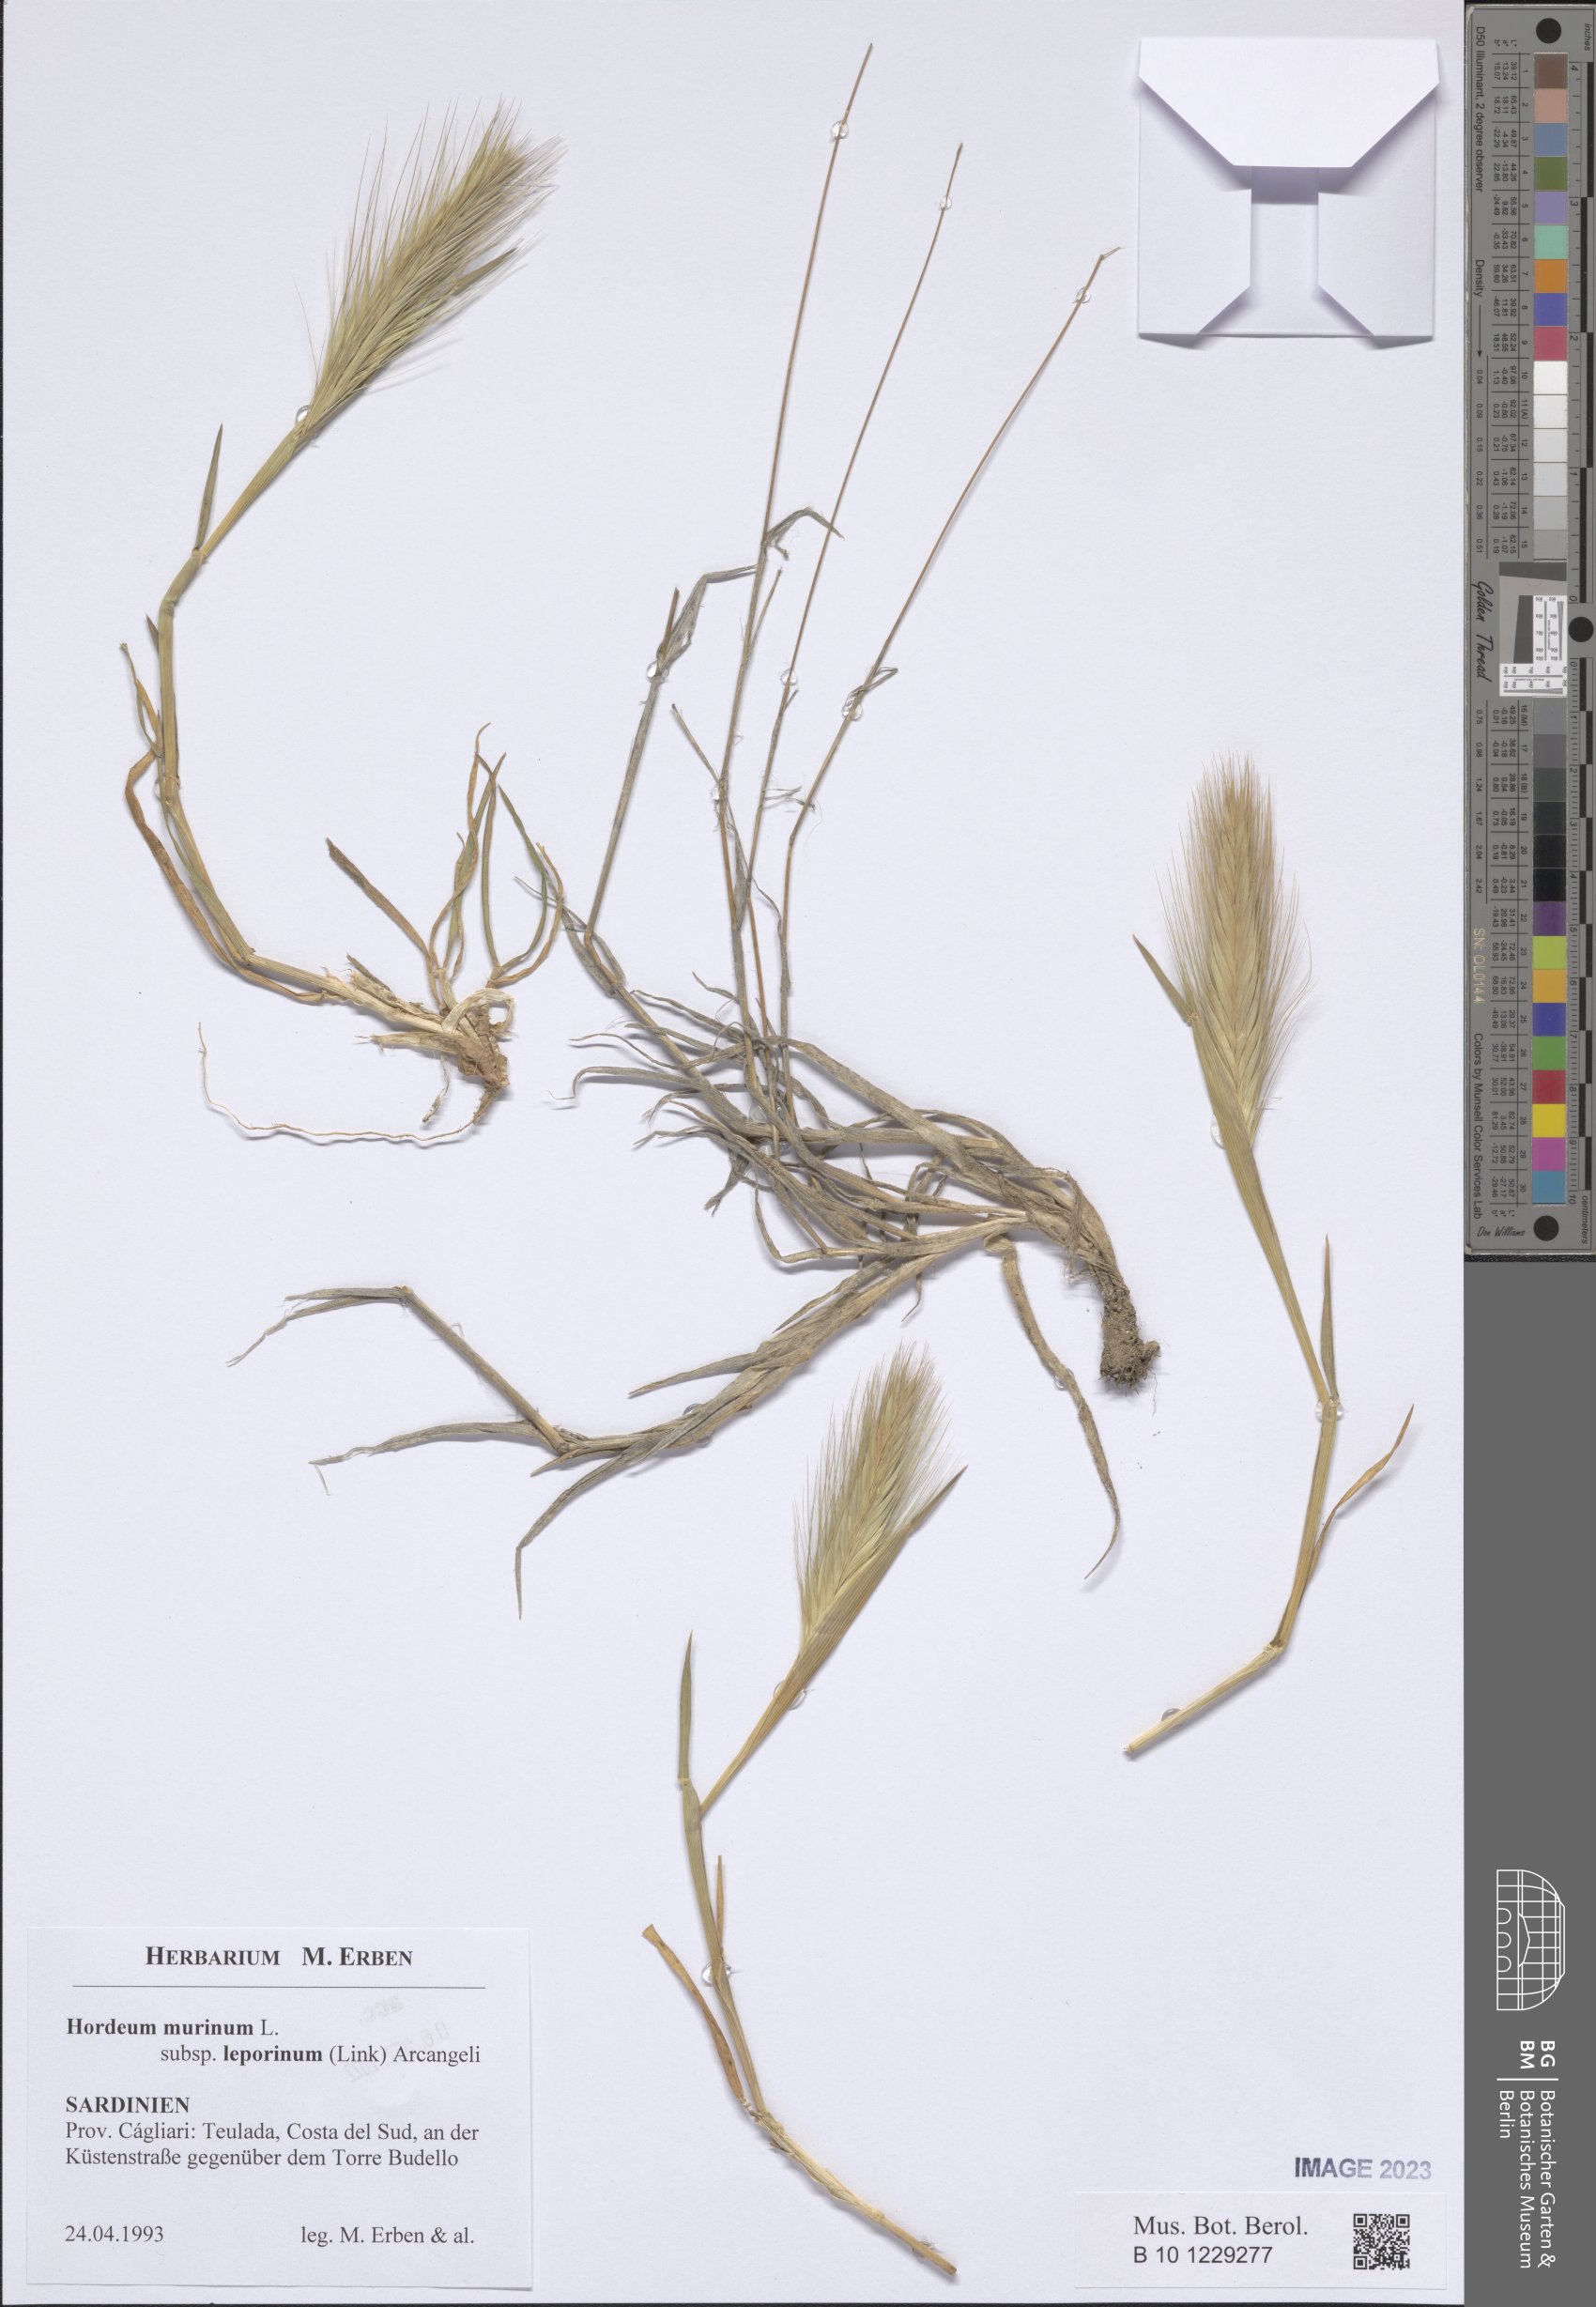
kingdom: Plantae
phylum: Tracheophyta
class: Liliopsida
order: Poales
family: Poaceae
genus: Hordeum
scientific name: Hordeum murinum
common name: Wall barley
